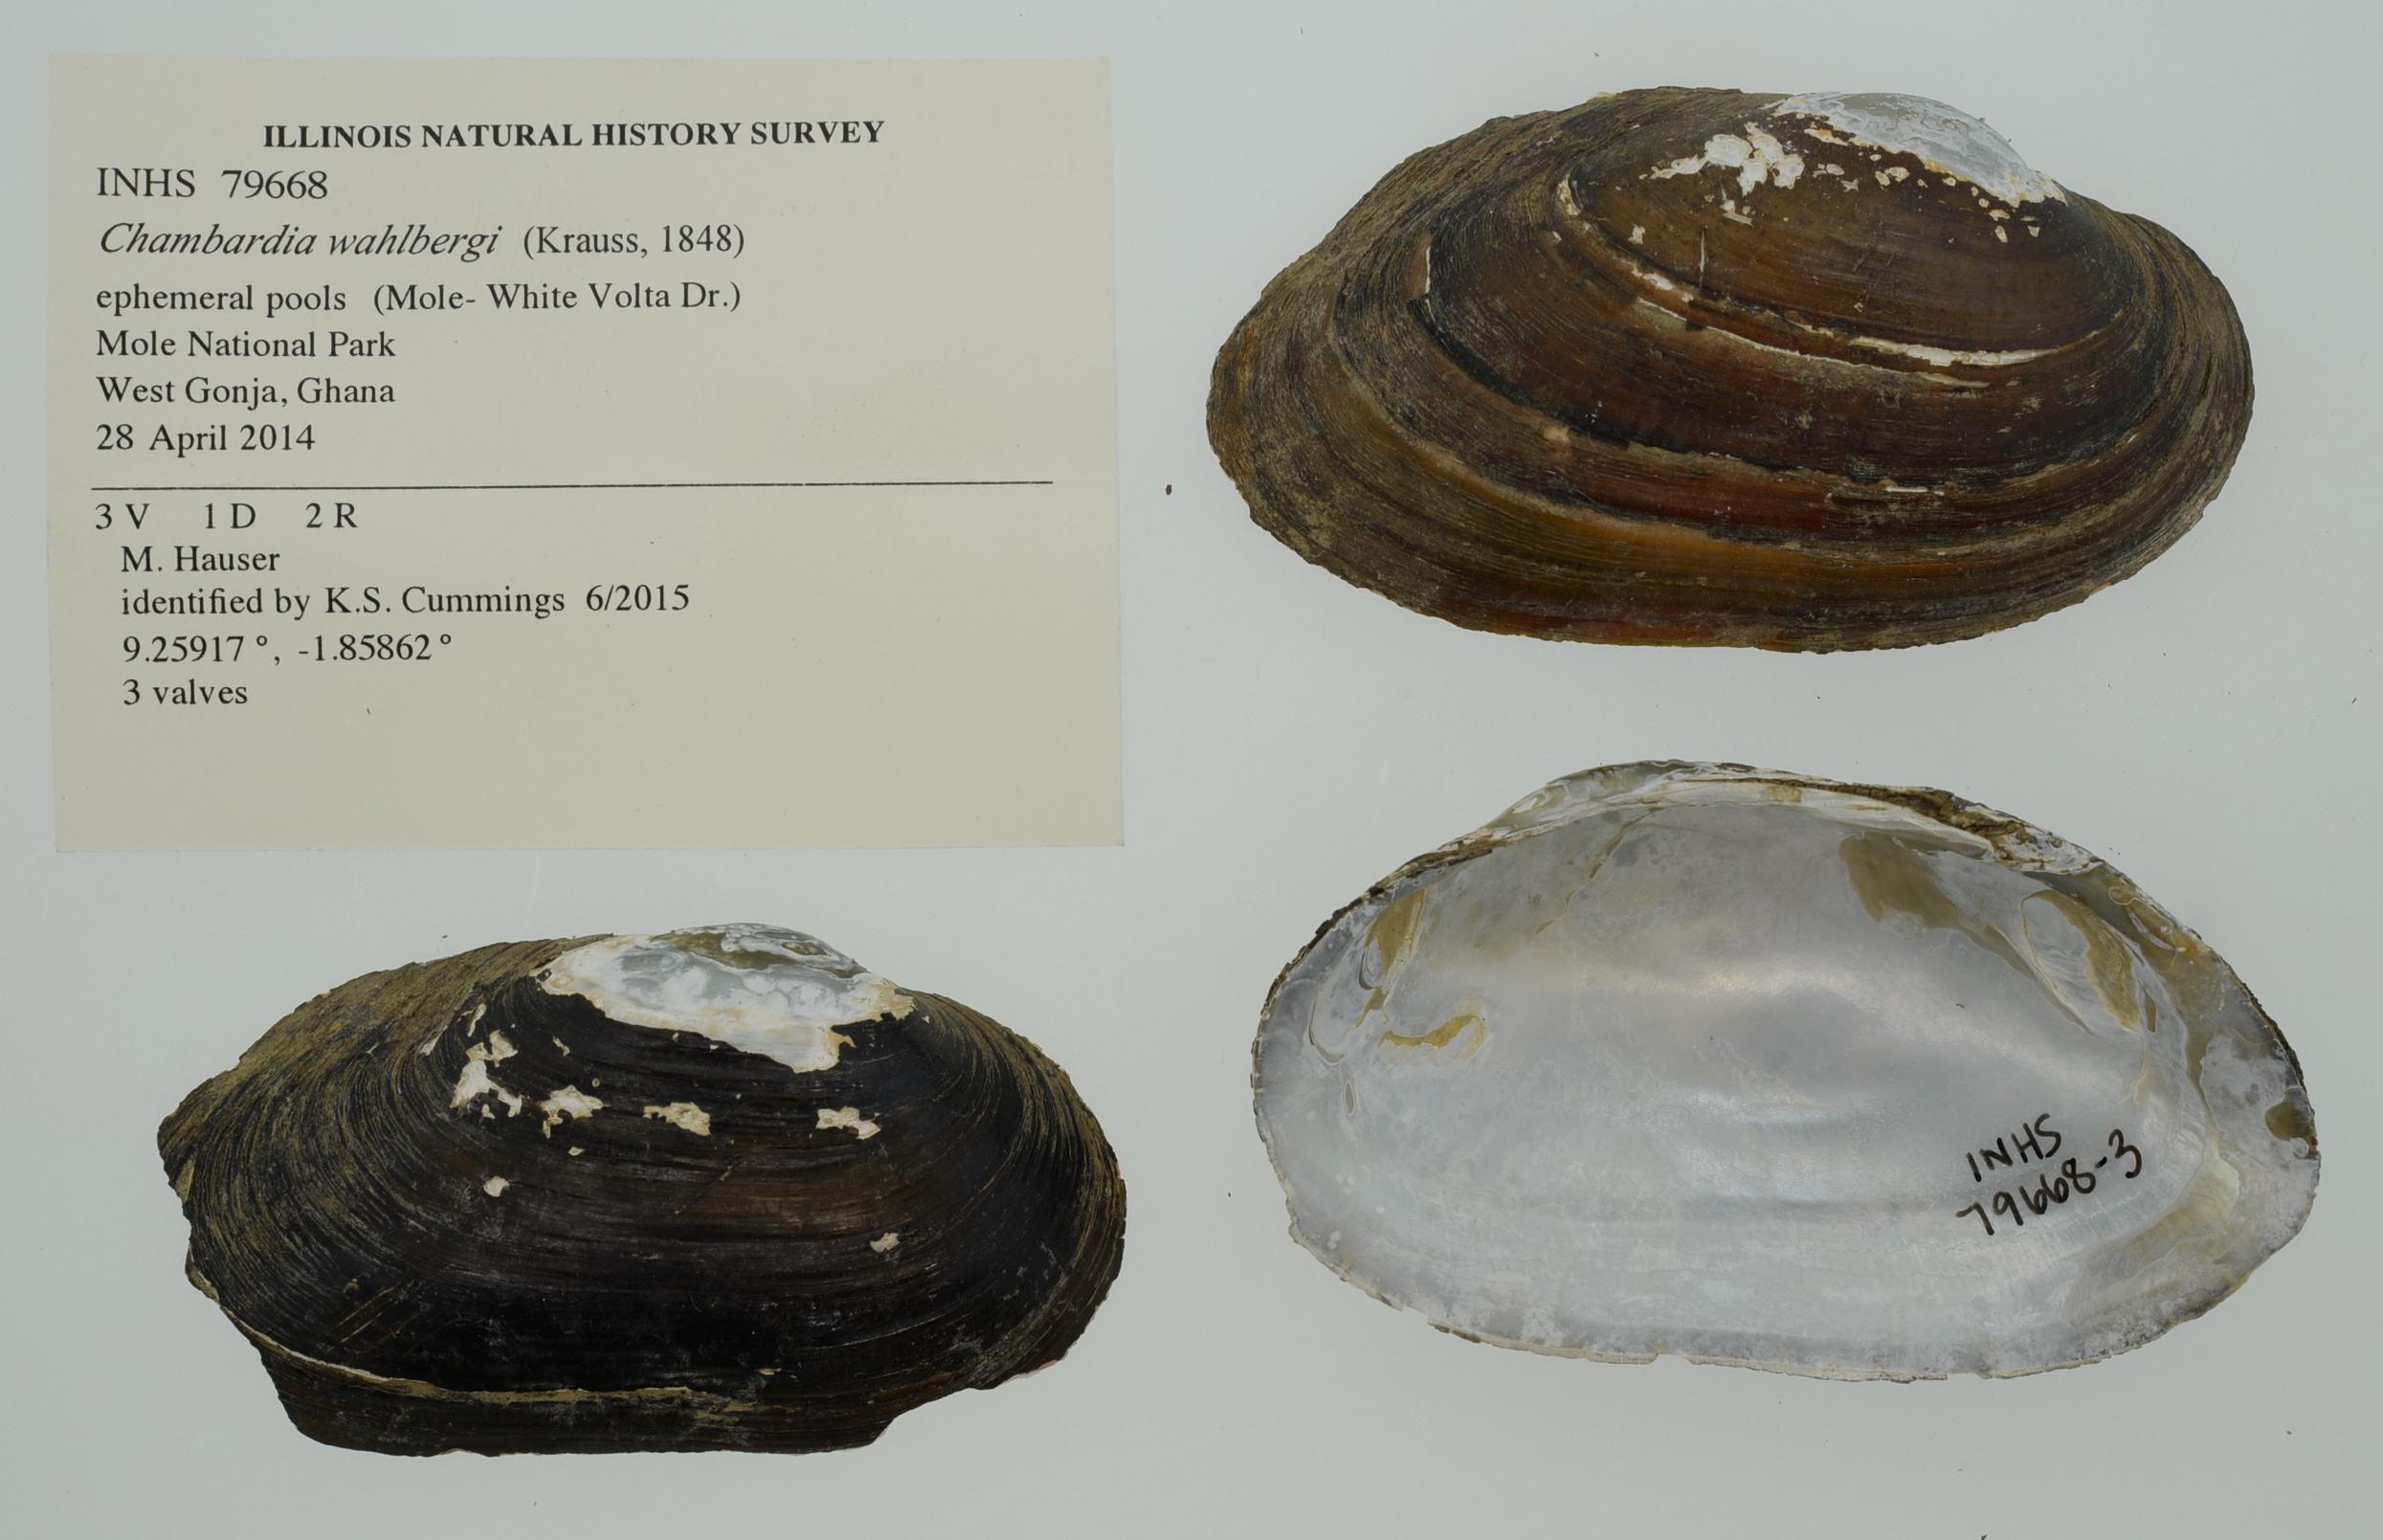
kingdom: Animalia
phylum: Mollusca
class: Bivalvia
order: Unionida
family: Iridinidae
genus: Chambardia
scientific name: Chambardia wahlbergi
